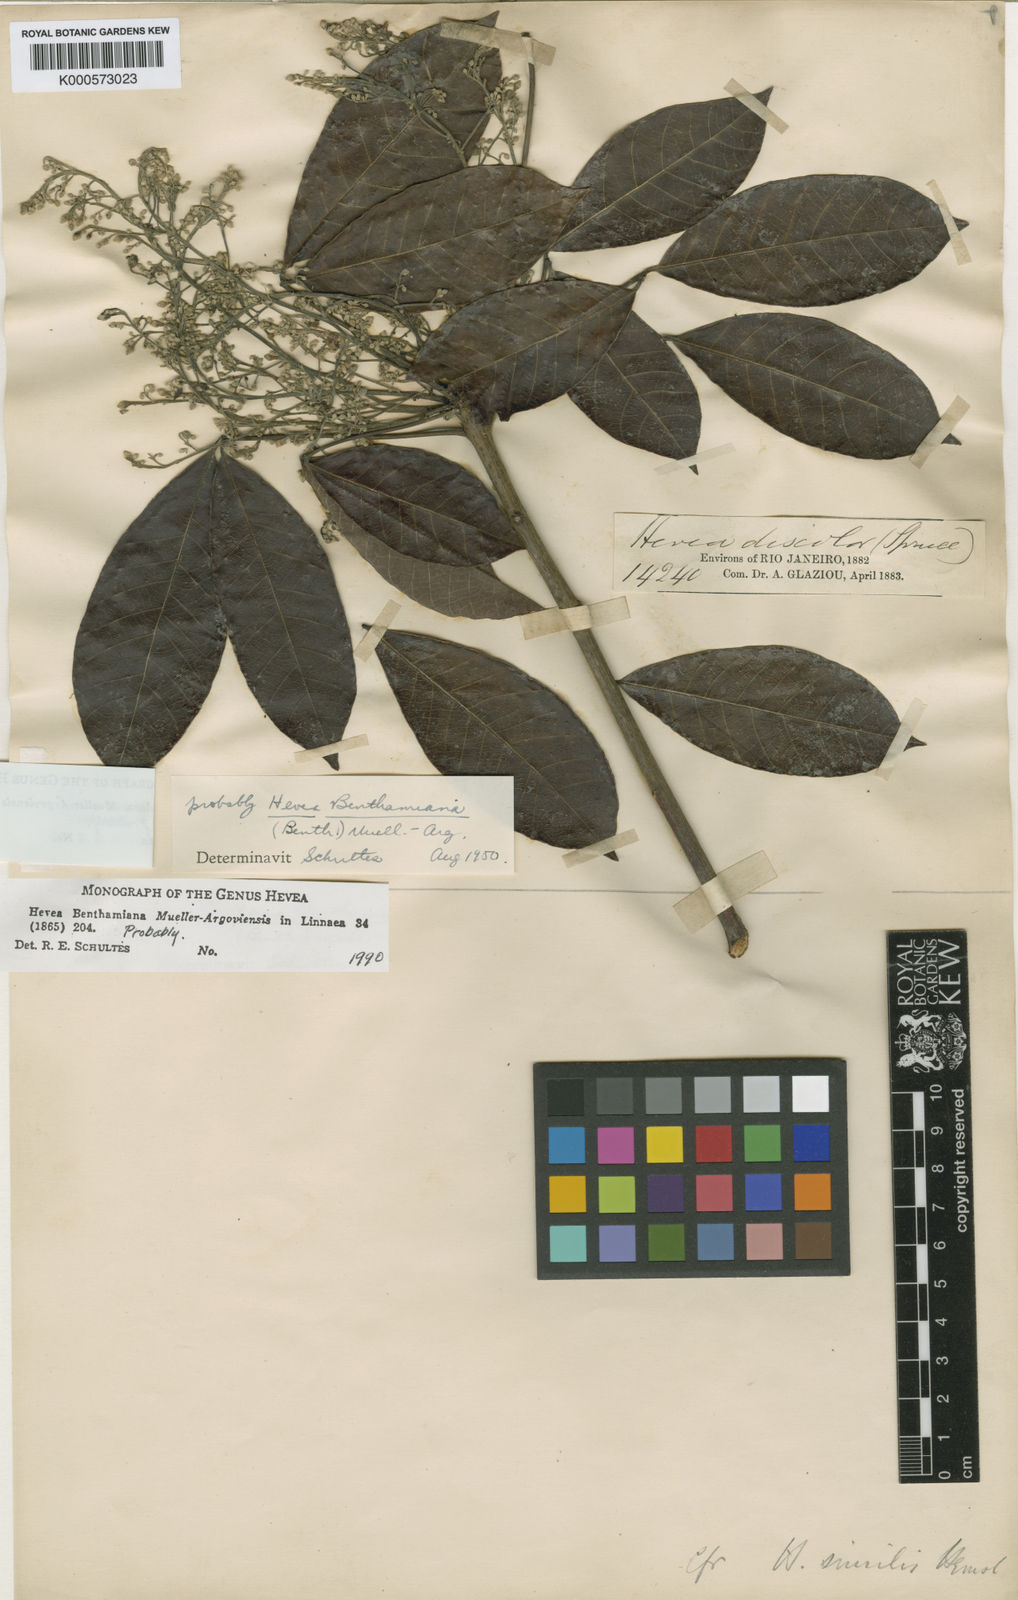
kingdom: Plantae
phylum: Tracheophyta
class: Magnoliopsida
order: Malpighiales
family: Euphorbiaceae
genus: Hevea
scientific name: Hevea spruceana
